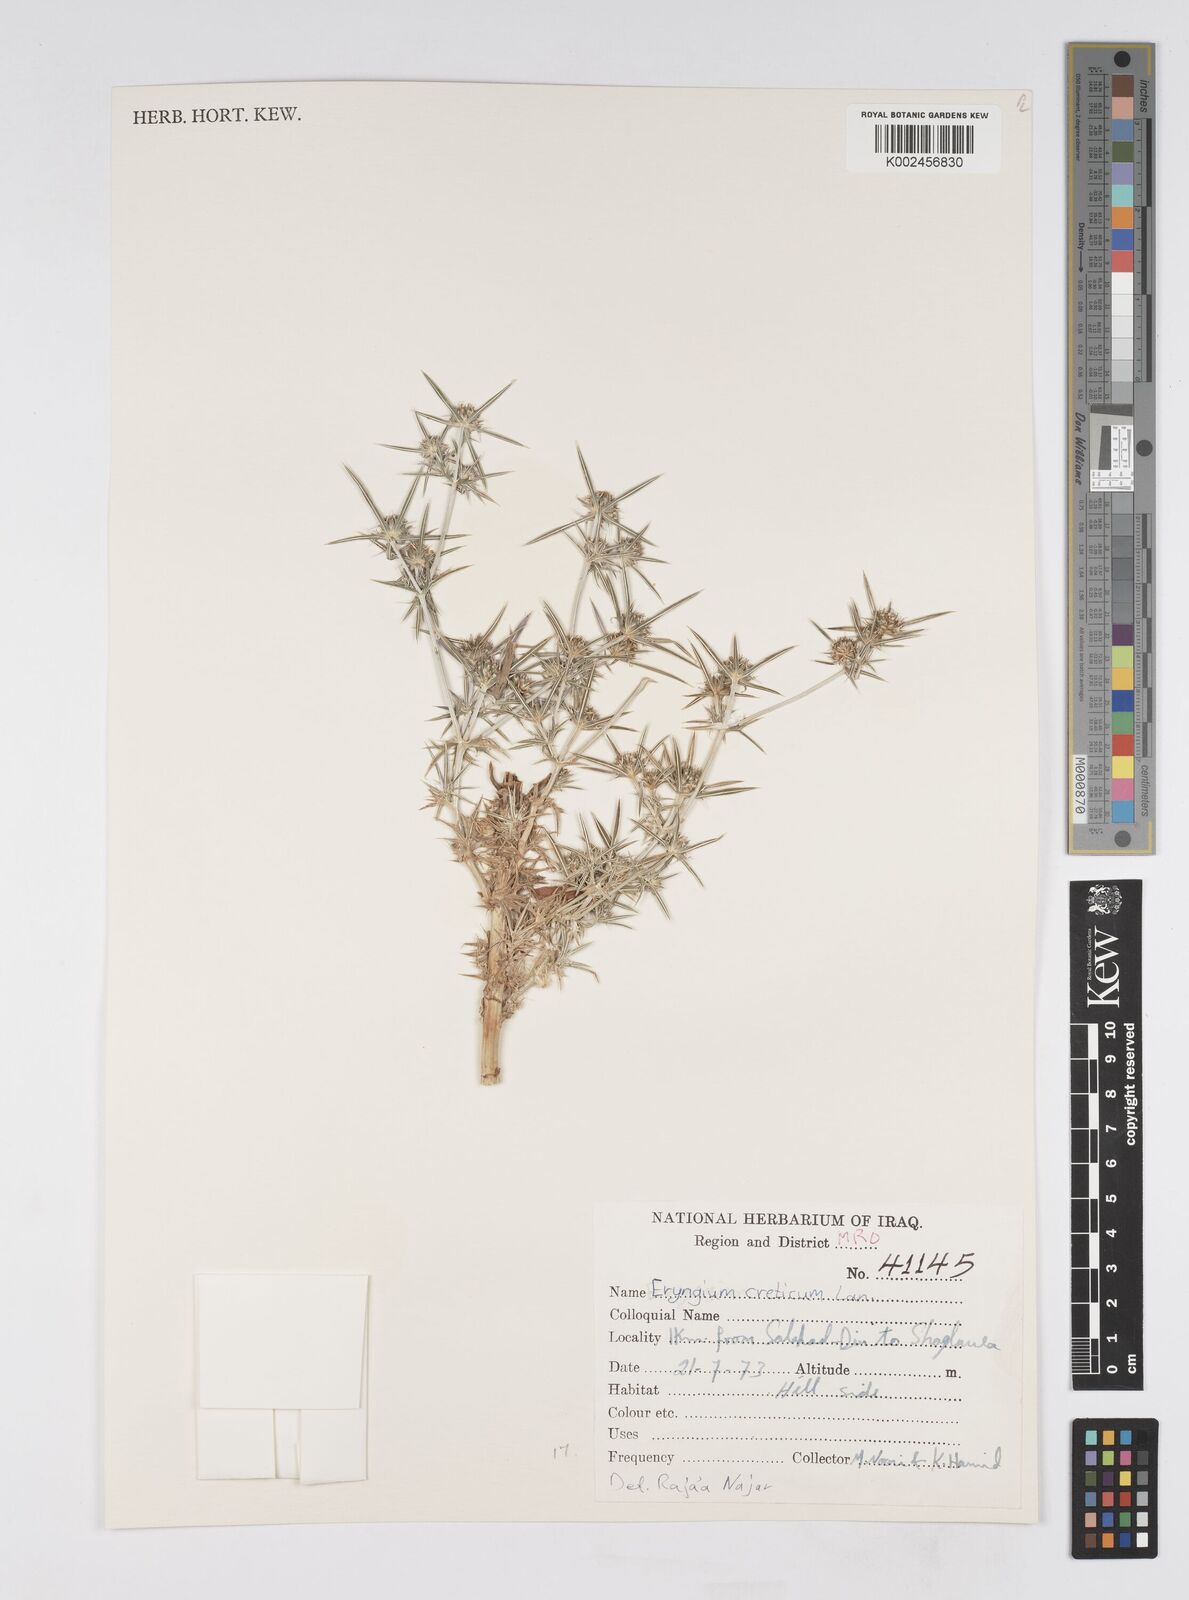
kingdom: Plantae
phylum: Tracheophyta
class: Magnoliopsida
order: Apiales
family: Apiaceae
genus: Eryngium
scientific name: Eryngium creticum
